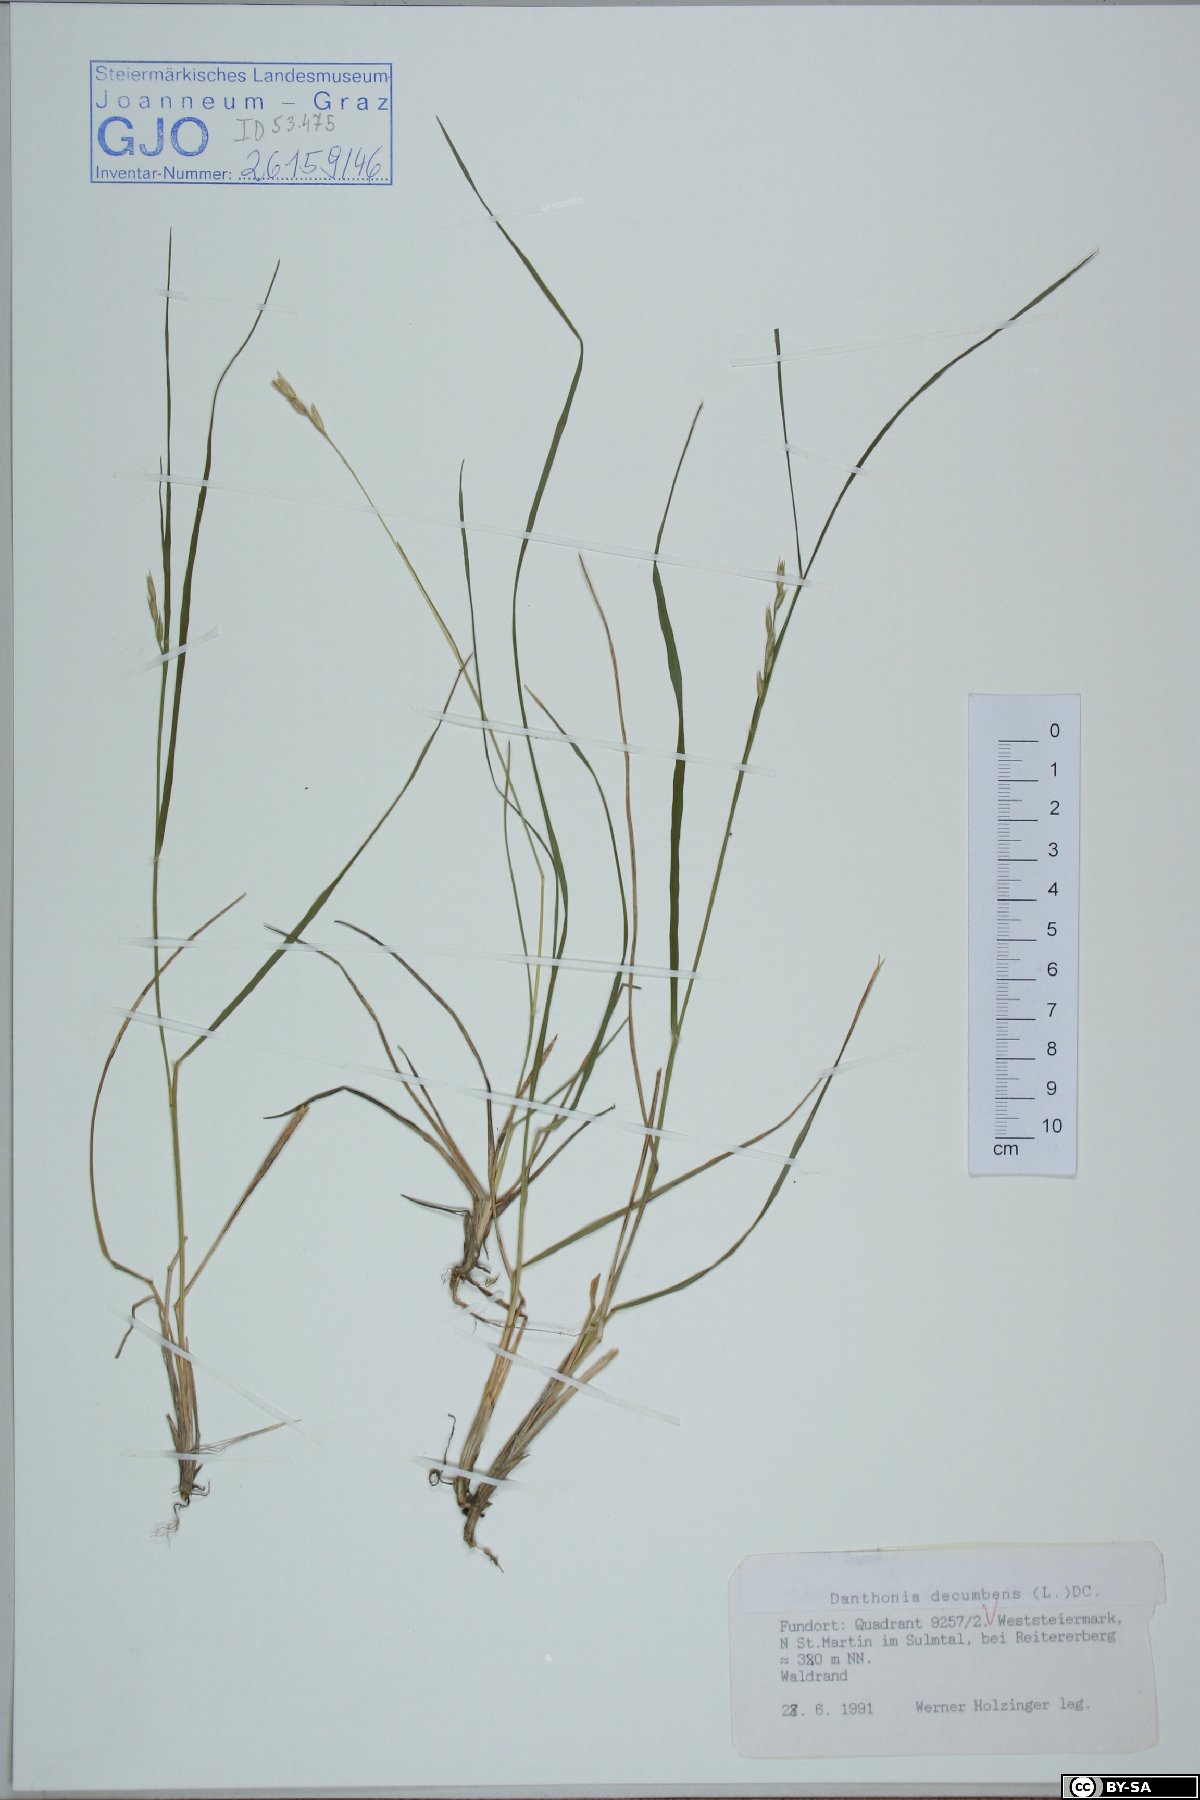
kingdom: Plantae
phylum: Tracheophyta
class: Liliopsida
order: Poales
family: Poaceae
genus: Danthonia
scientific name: Danthonia decumbens
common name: Common heathgrass
